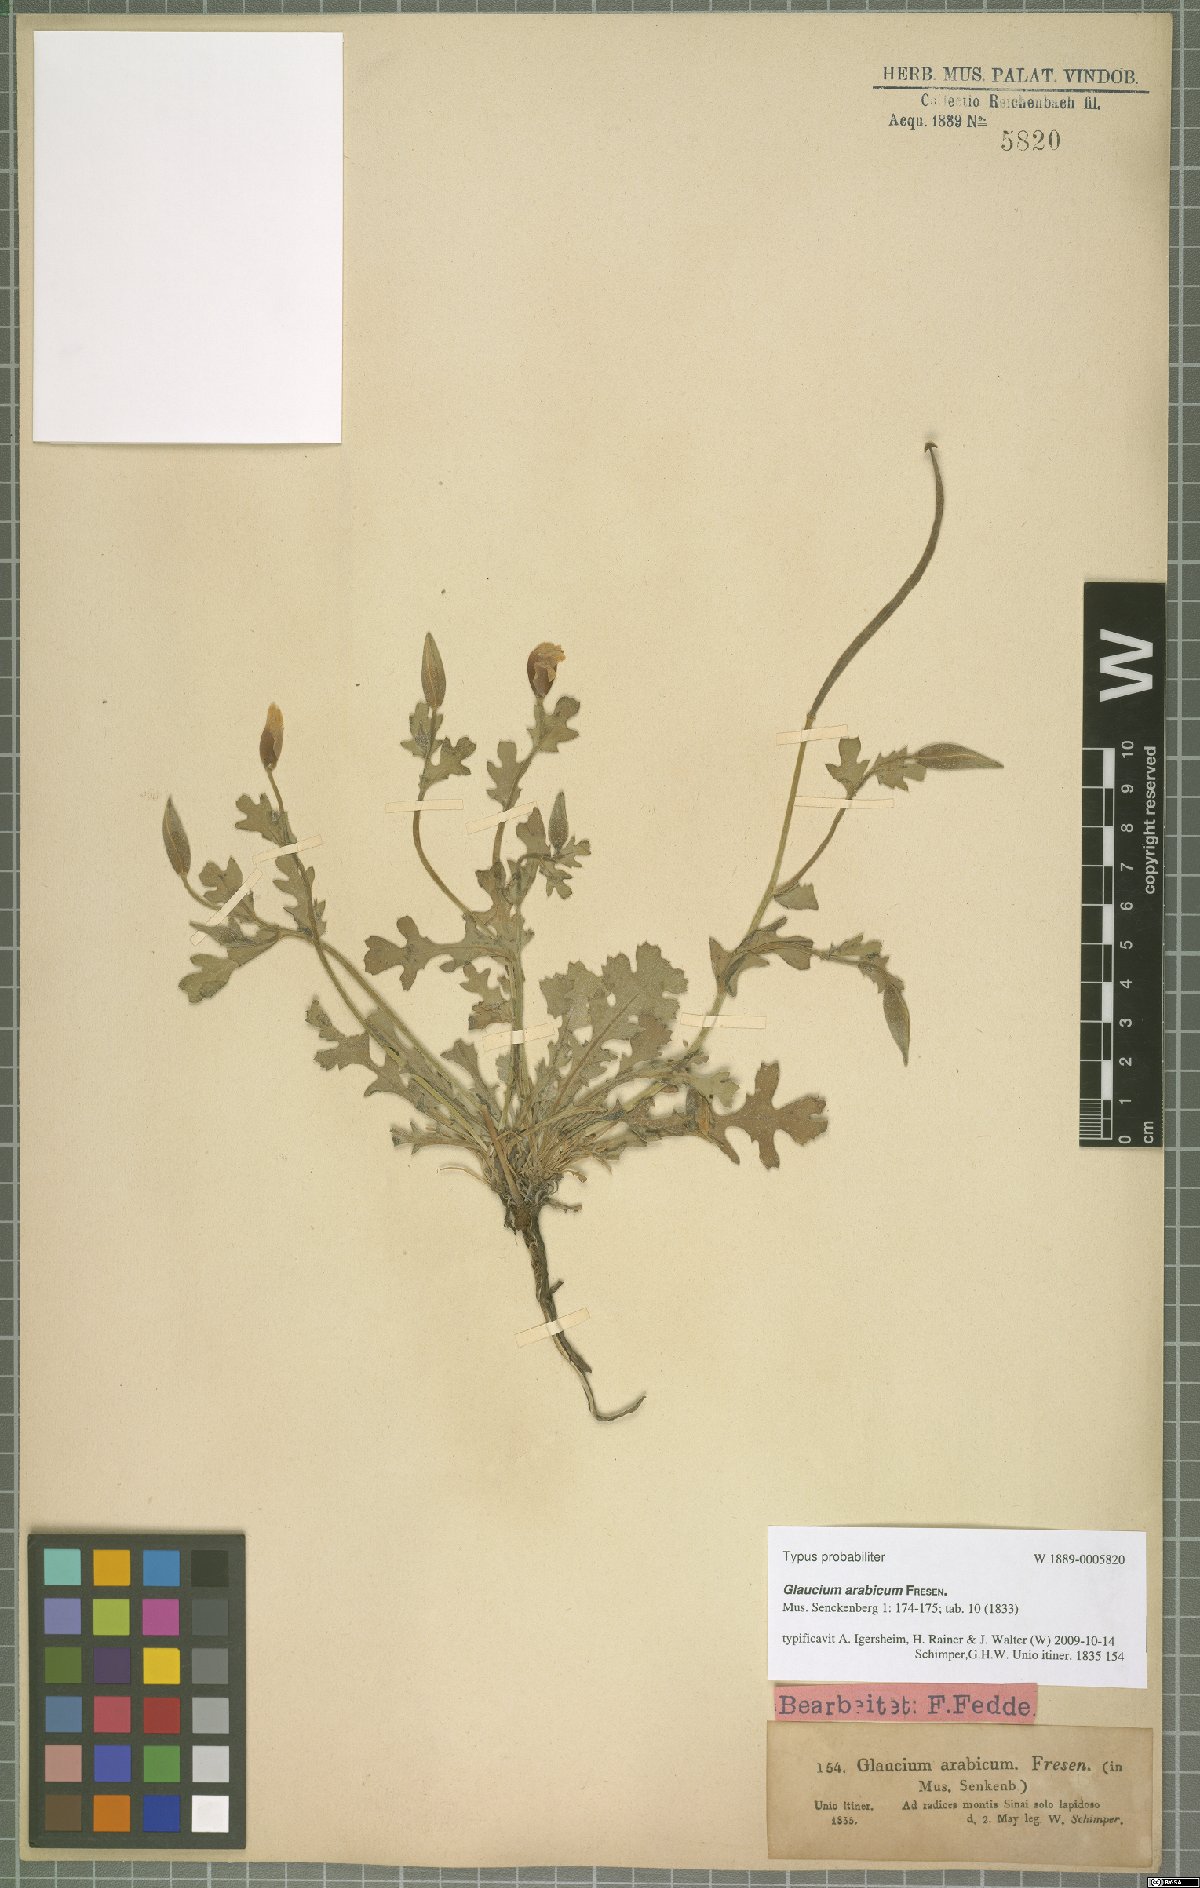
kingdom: Plantae
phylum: Tracheophyta
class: Magnoliopsida
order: Ranunculales
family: Papaveraceae
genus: Glaucium
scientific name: Glaucium arabicum
